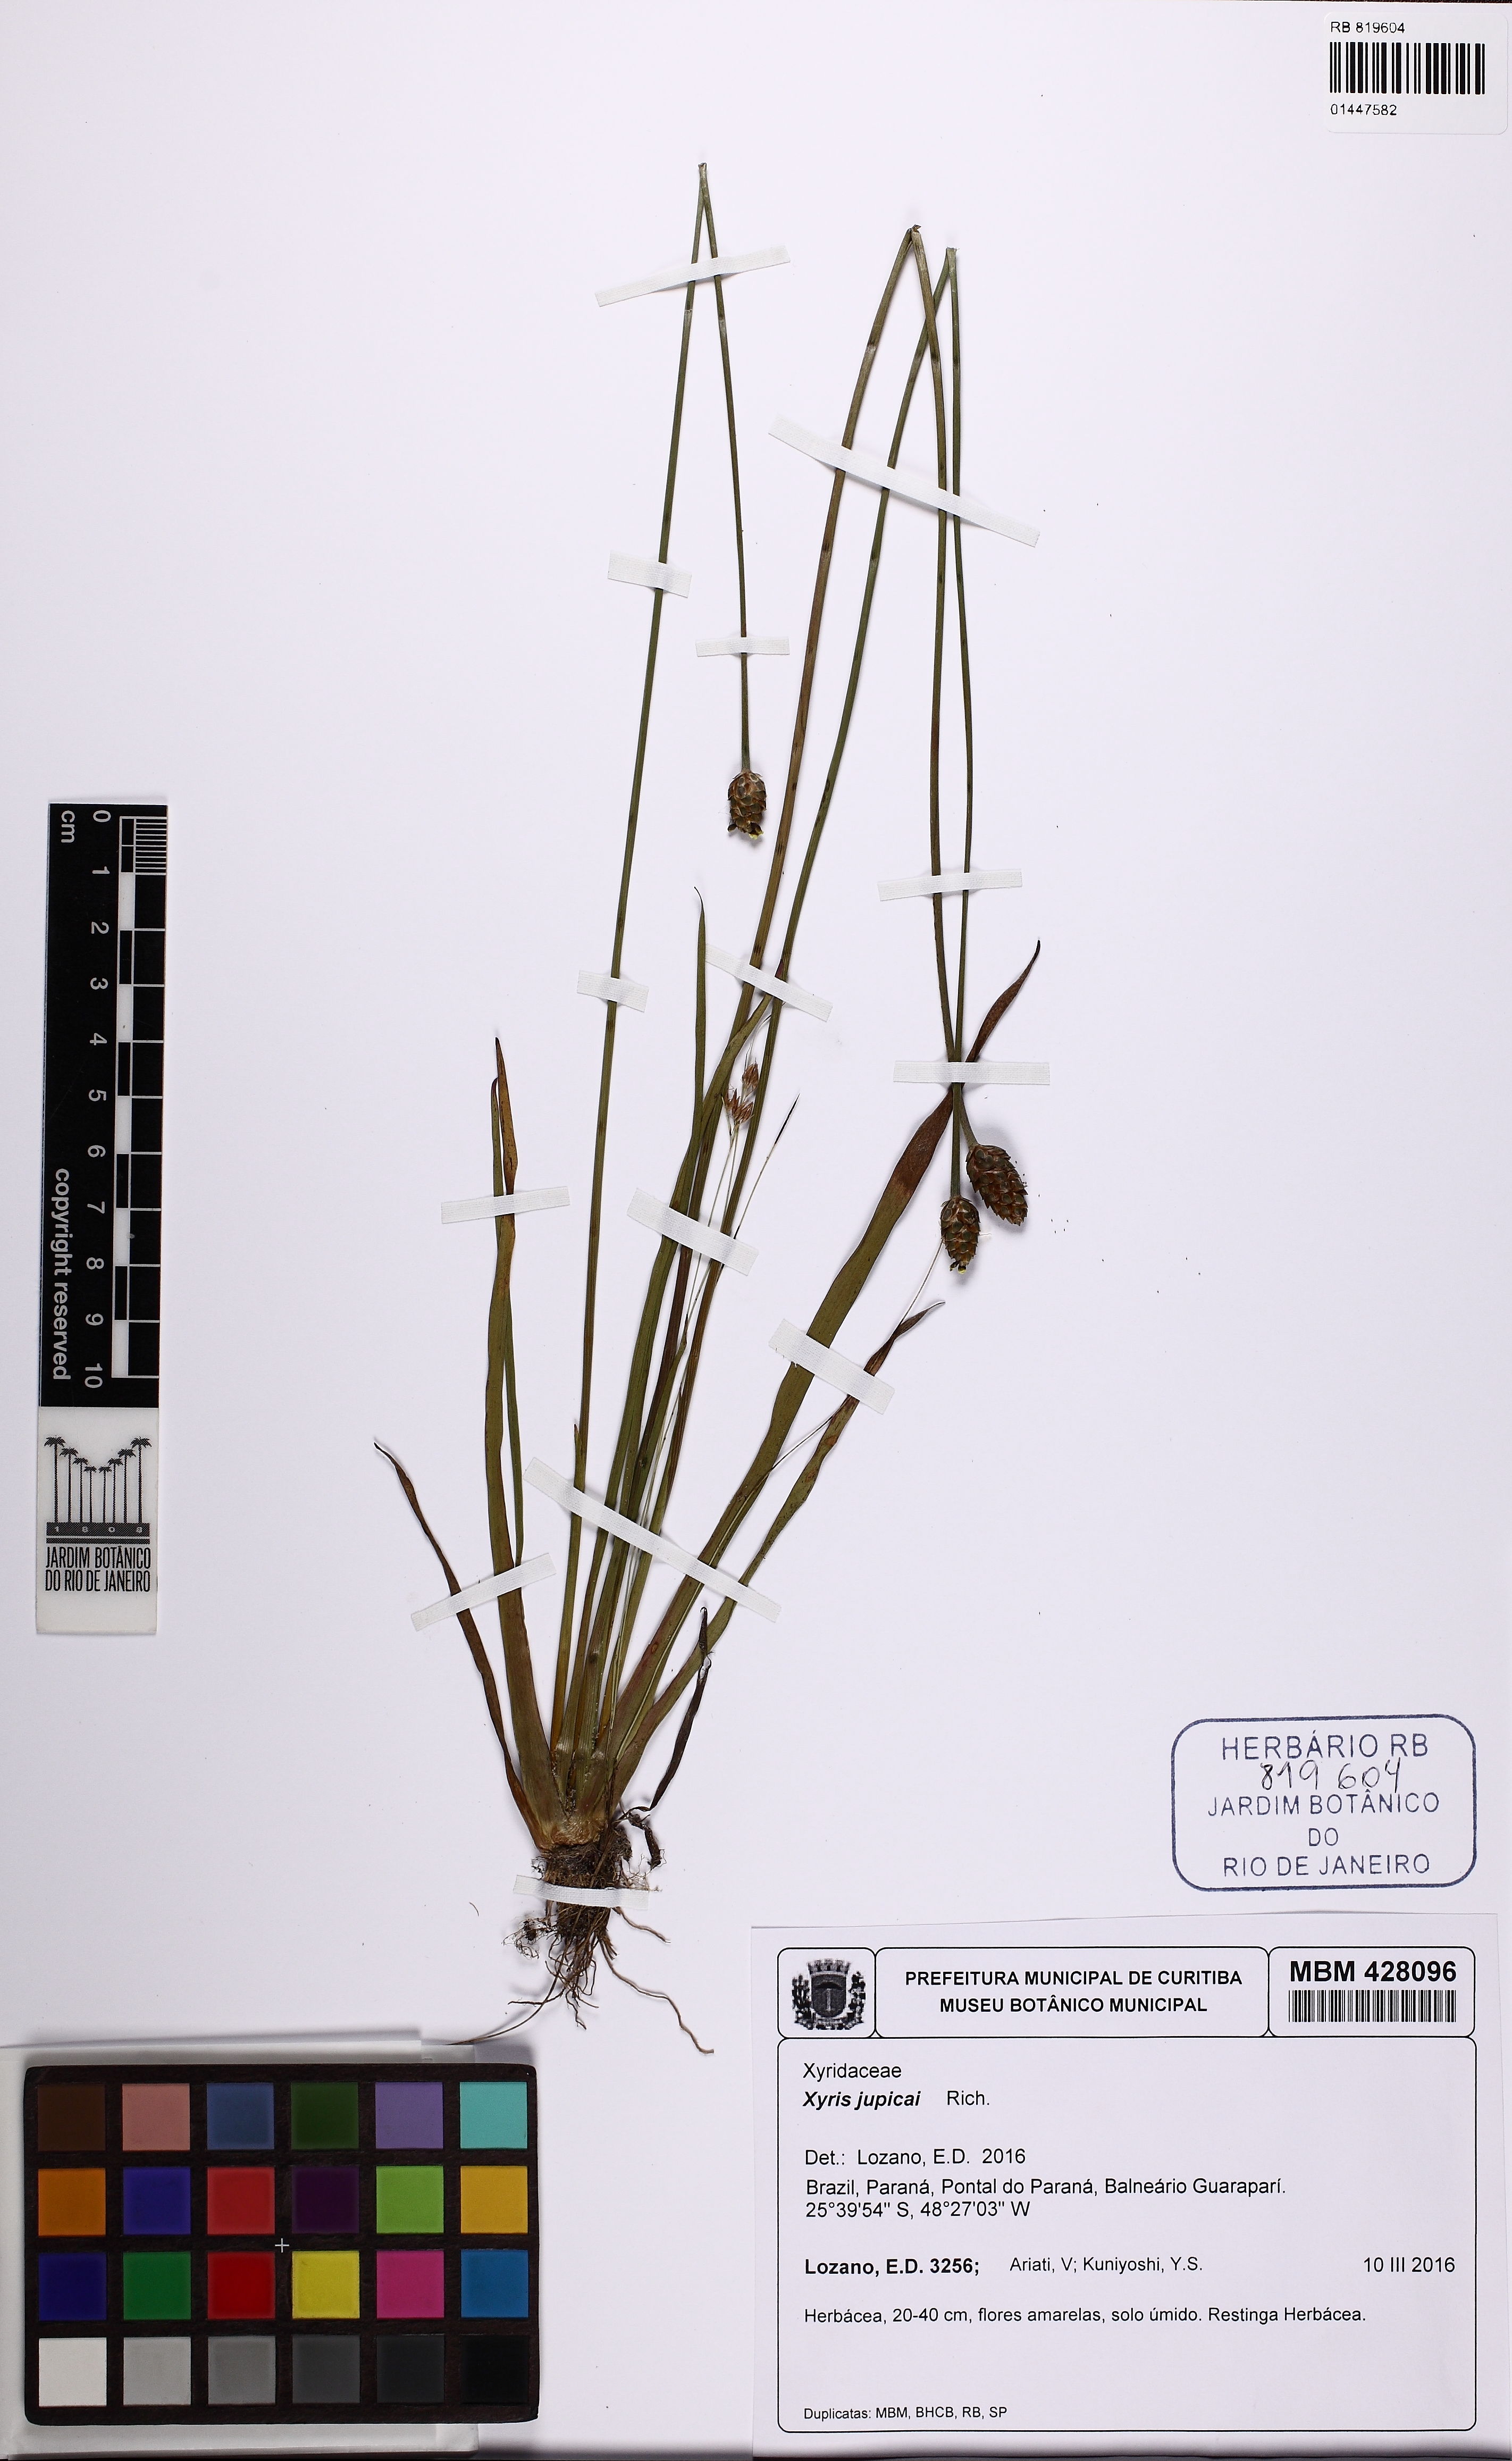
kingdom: Plantae
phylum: Tracheophyta
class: Liliopsida
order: Poales
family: Xyridaceae
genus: Xyris
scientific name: Xyris jupicai
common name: Richard's yelloweyed grass
